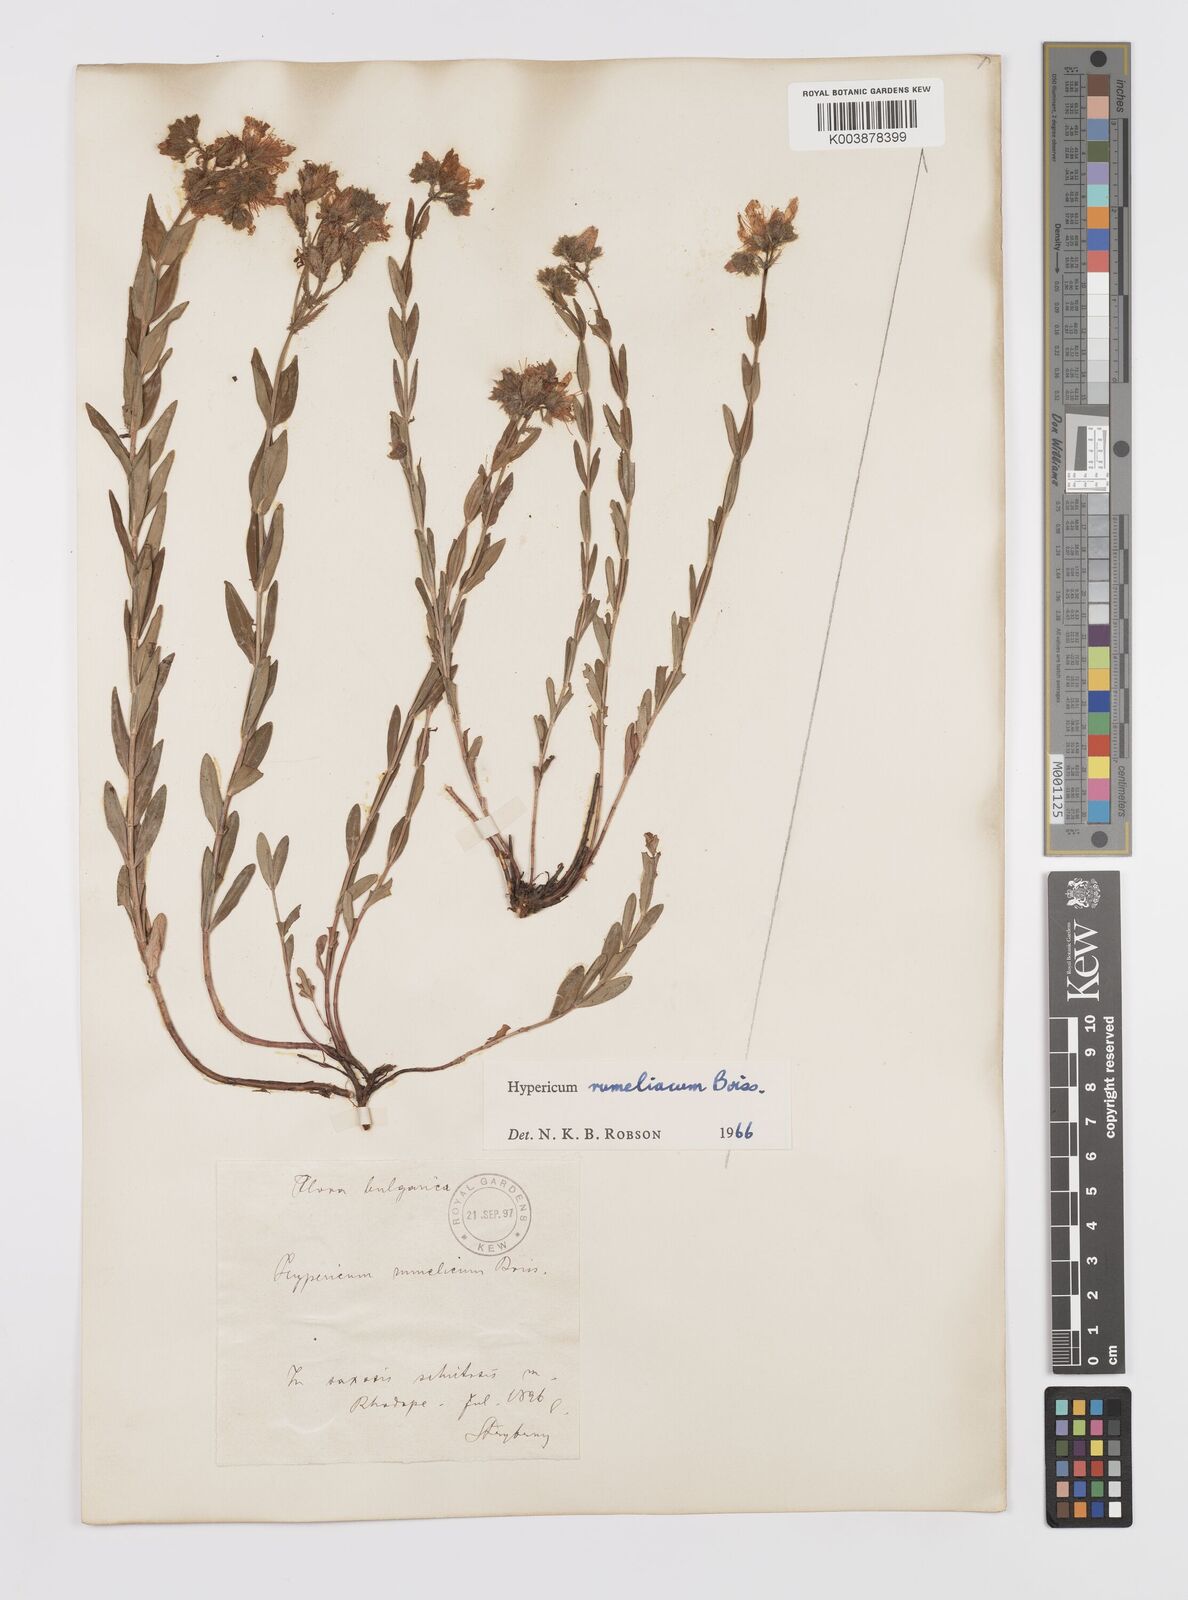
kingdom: Plantae
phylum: Tracheophyta
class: Magnoliopsida
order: Malpighiales
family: Hypericaceae
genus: Hypericum
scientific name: Hypericum rumeliacum
